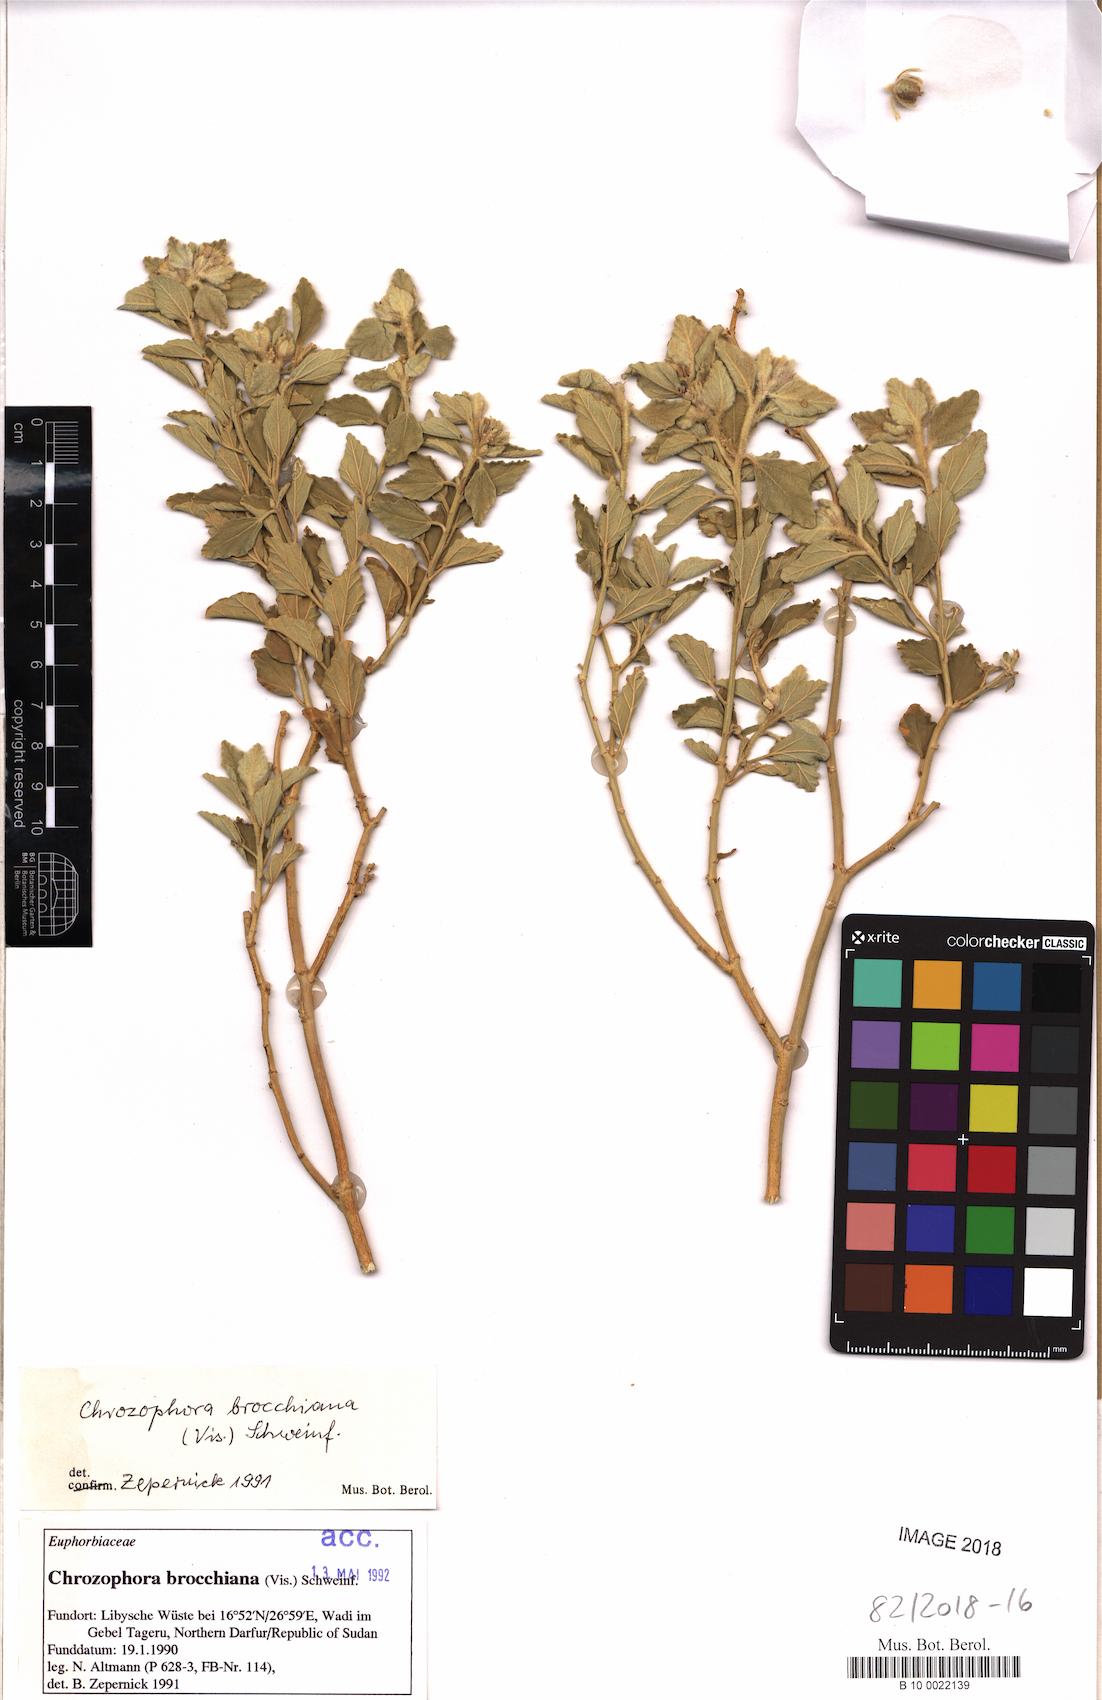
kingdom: Plantae
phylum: Tracheophyta
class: Magnoliopsida
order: Malpighiales
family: Euphorbiaceae
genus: Chrozophora
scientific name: Chrozophora brocchiana
